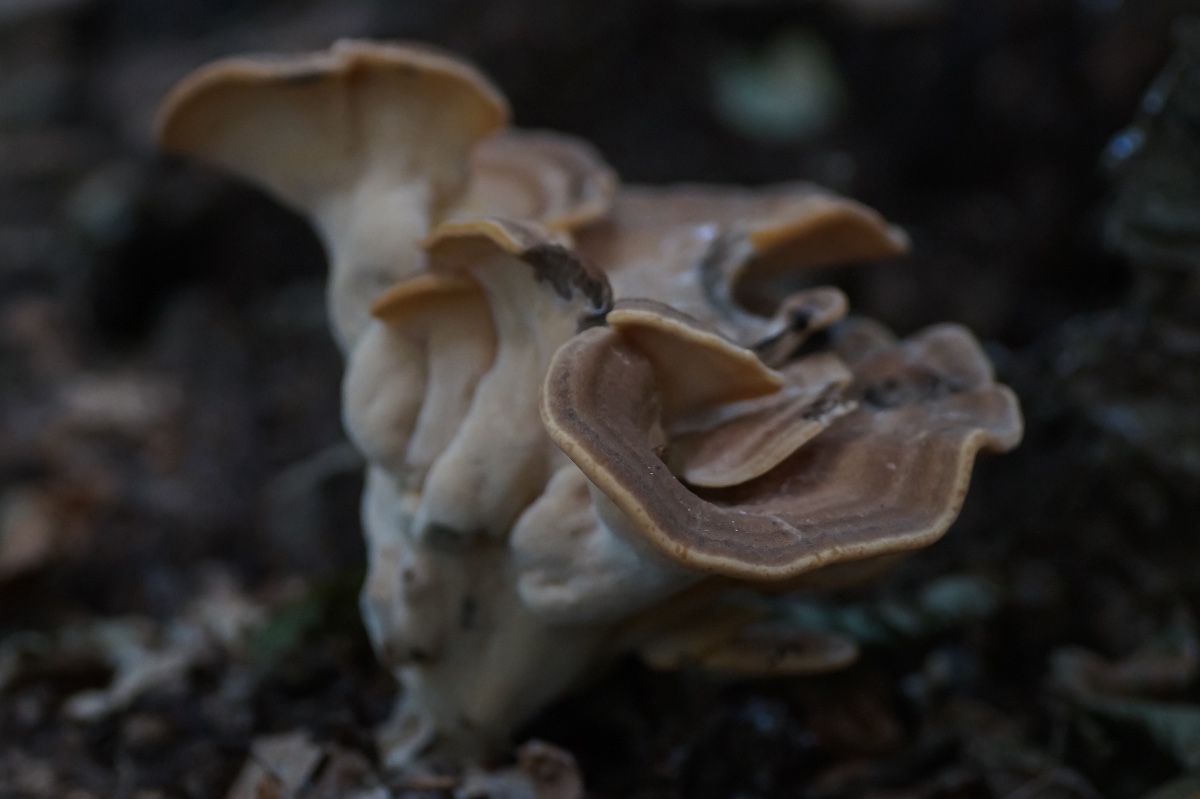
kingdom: Fungi
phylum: Basidiomycota
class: Agaricomycetes
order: Polyporales
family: Meripilaceae
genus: Meripilus
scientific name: Meripilus giganteus
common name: kæmpeporesvamp
